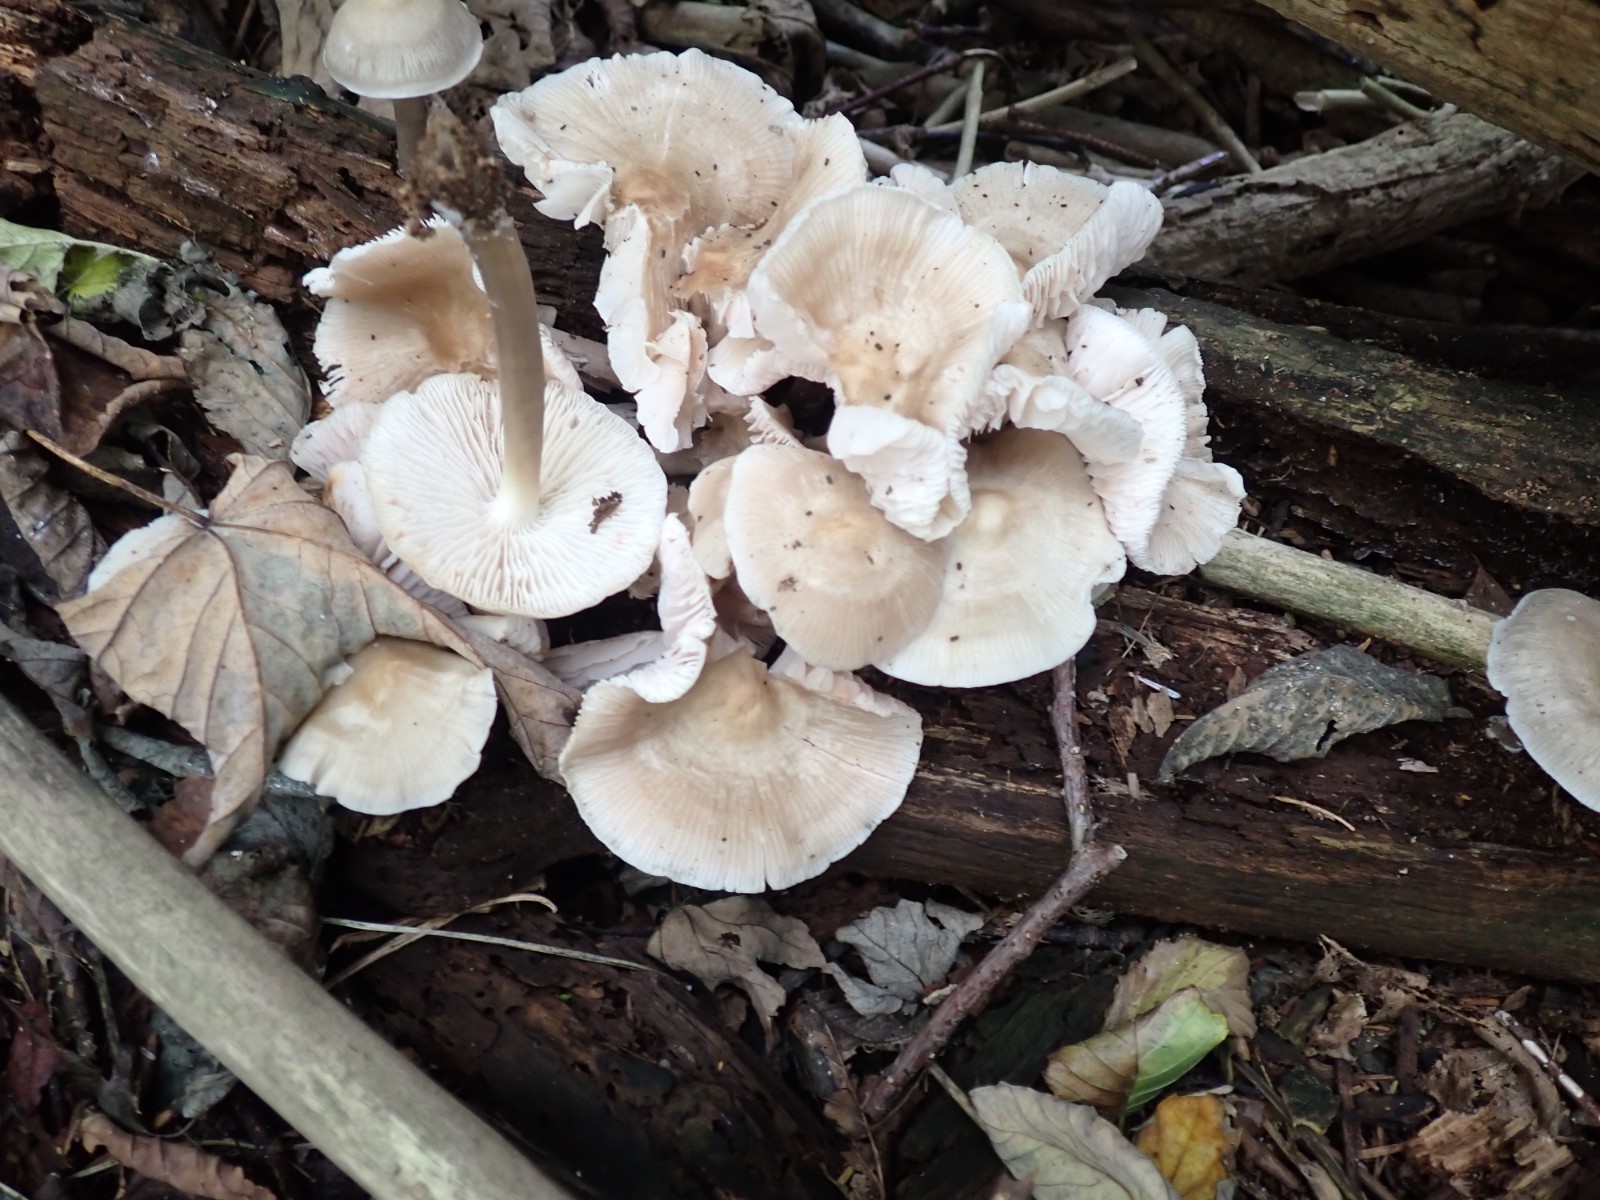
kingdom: Fungi
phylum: Basidiomycota
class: Agaricomycetes
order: Agaricales
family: Mycenaceae
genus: Mycena
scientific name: Mycena galericulata
